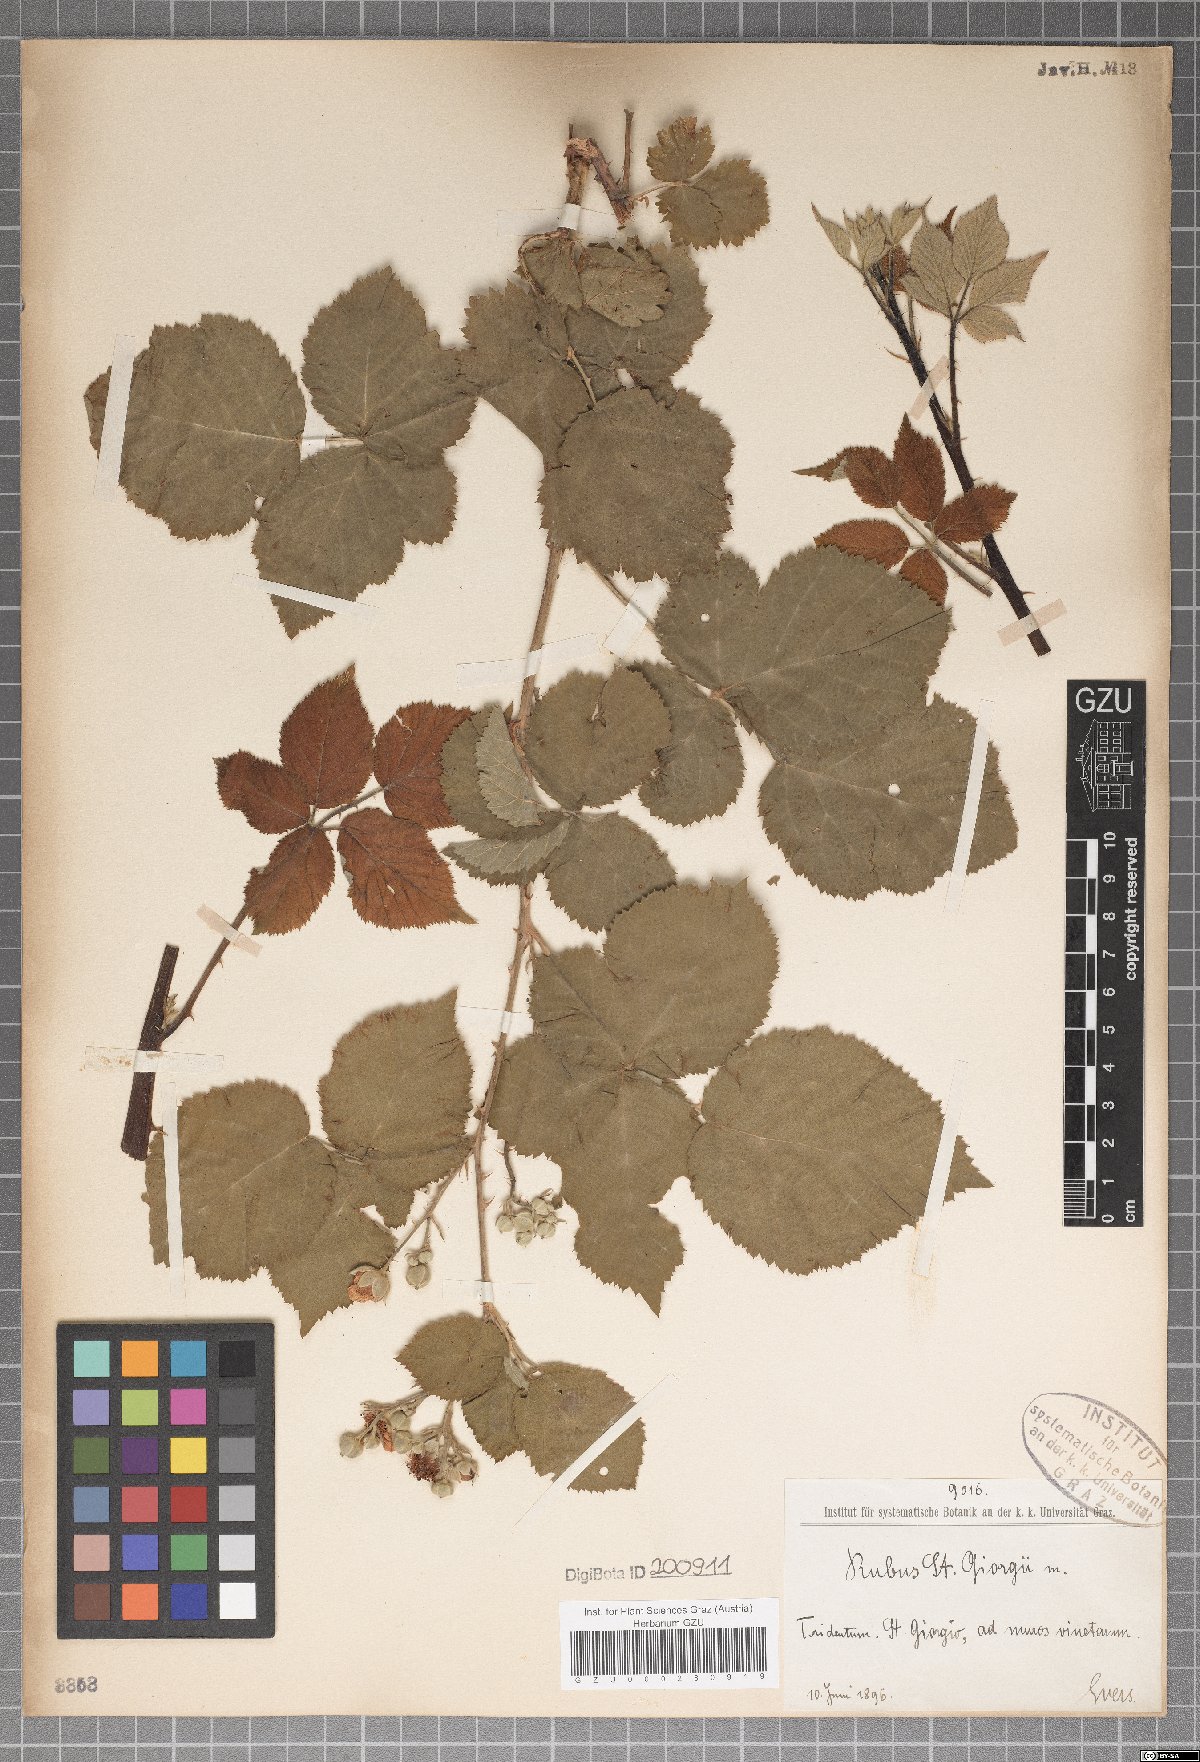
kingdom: Plantae
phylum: Tracheophyta
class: Magnoliopsida
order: Rosales
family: Rosaceae
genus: Rubus
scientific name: Rubus
